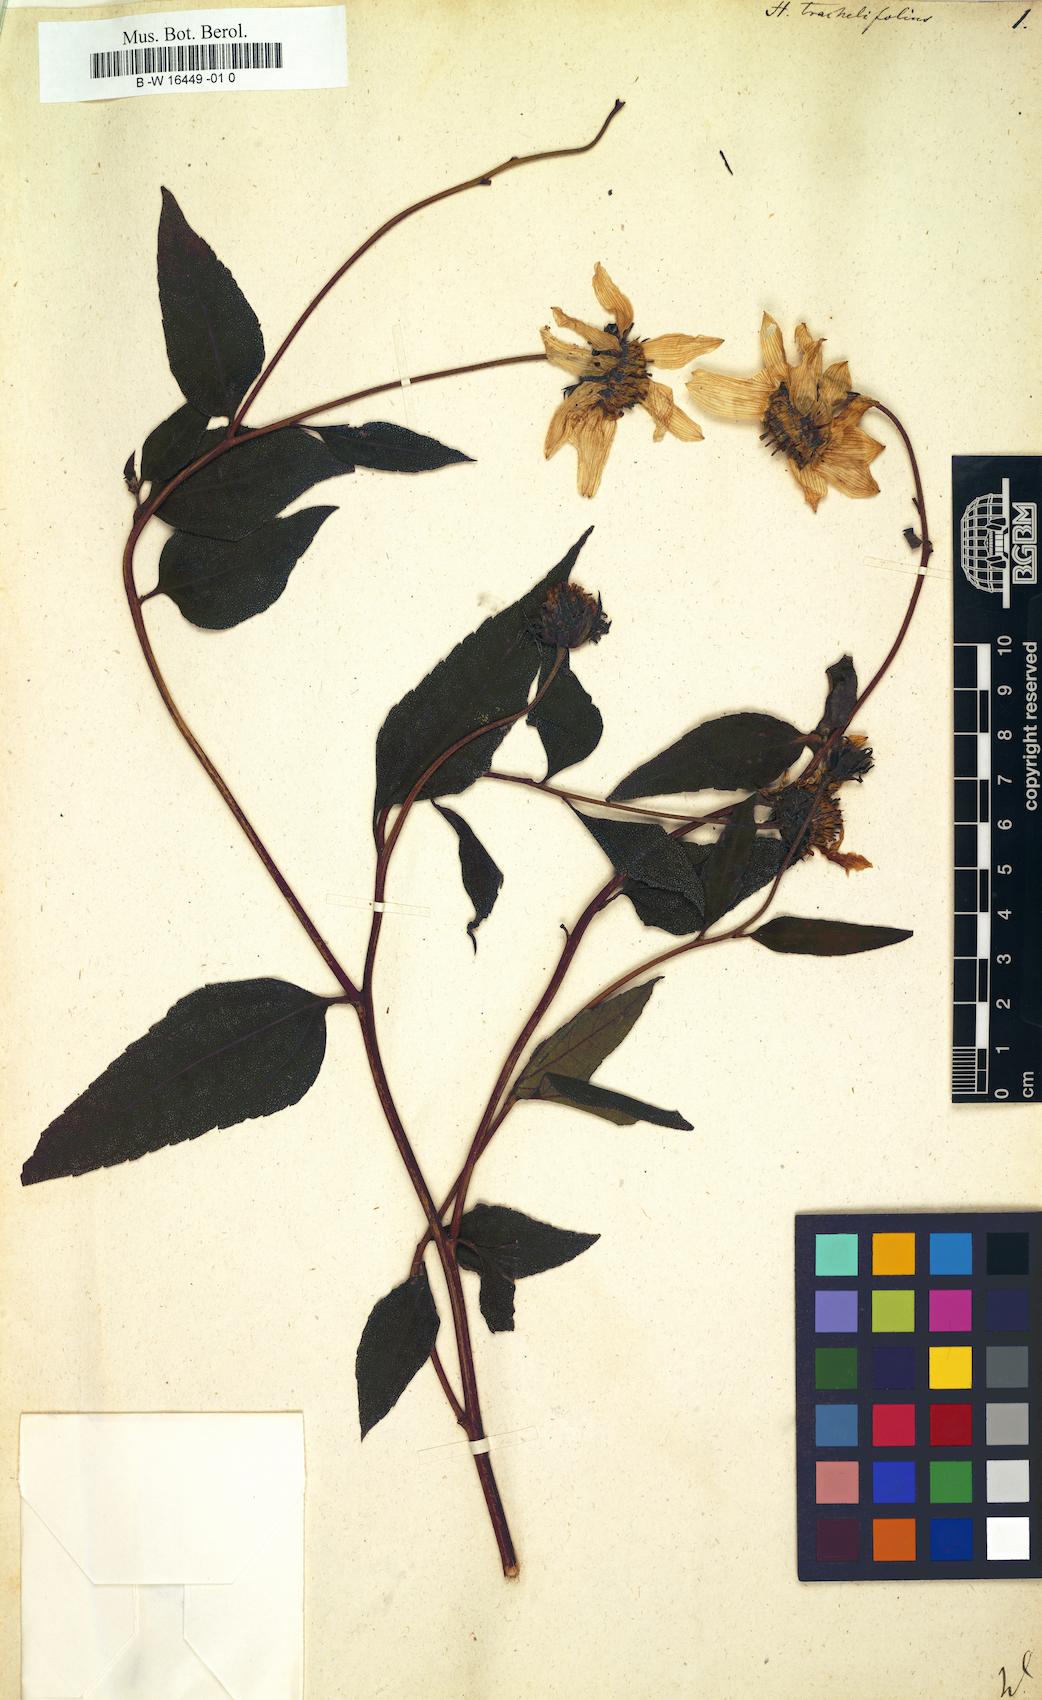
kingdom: Plantae
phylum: Tracheophyta
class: Magnoliopsida
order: Asterales
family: Asteraceae
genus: Helianthus
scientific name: Helianthus decapetalus
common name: Thin-leaved sunflower
